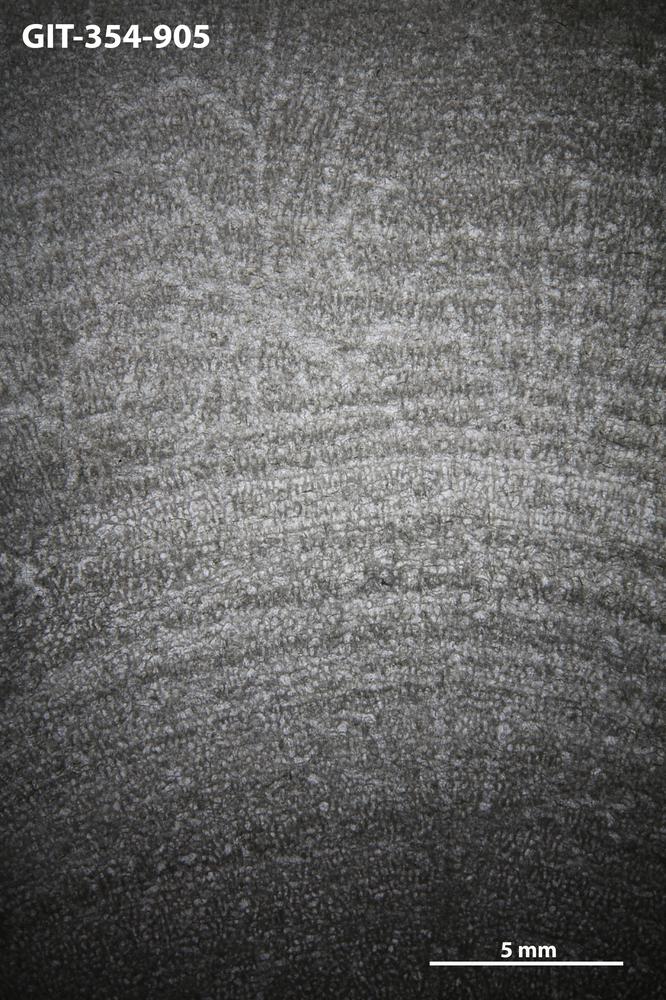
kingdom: Animalia
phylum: Porifera
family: Syringostromellidae
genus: Syringostromella
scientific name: Syringostromella
